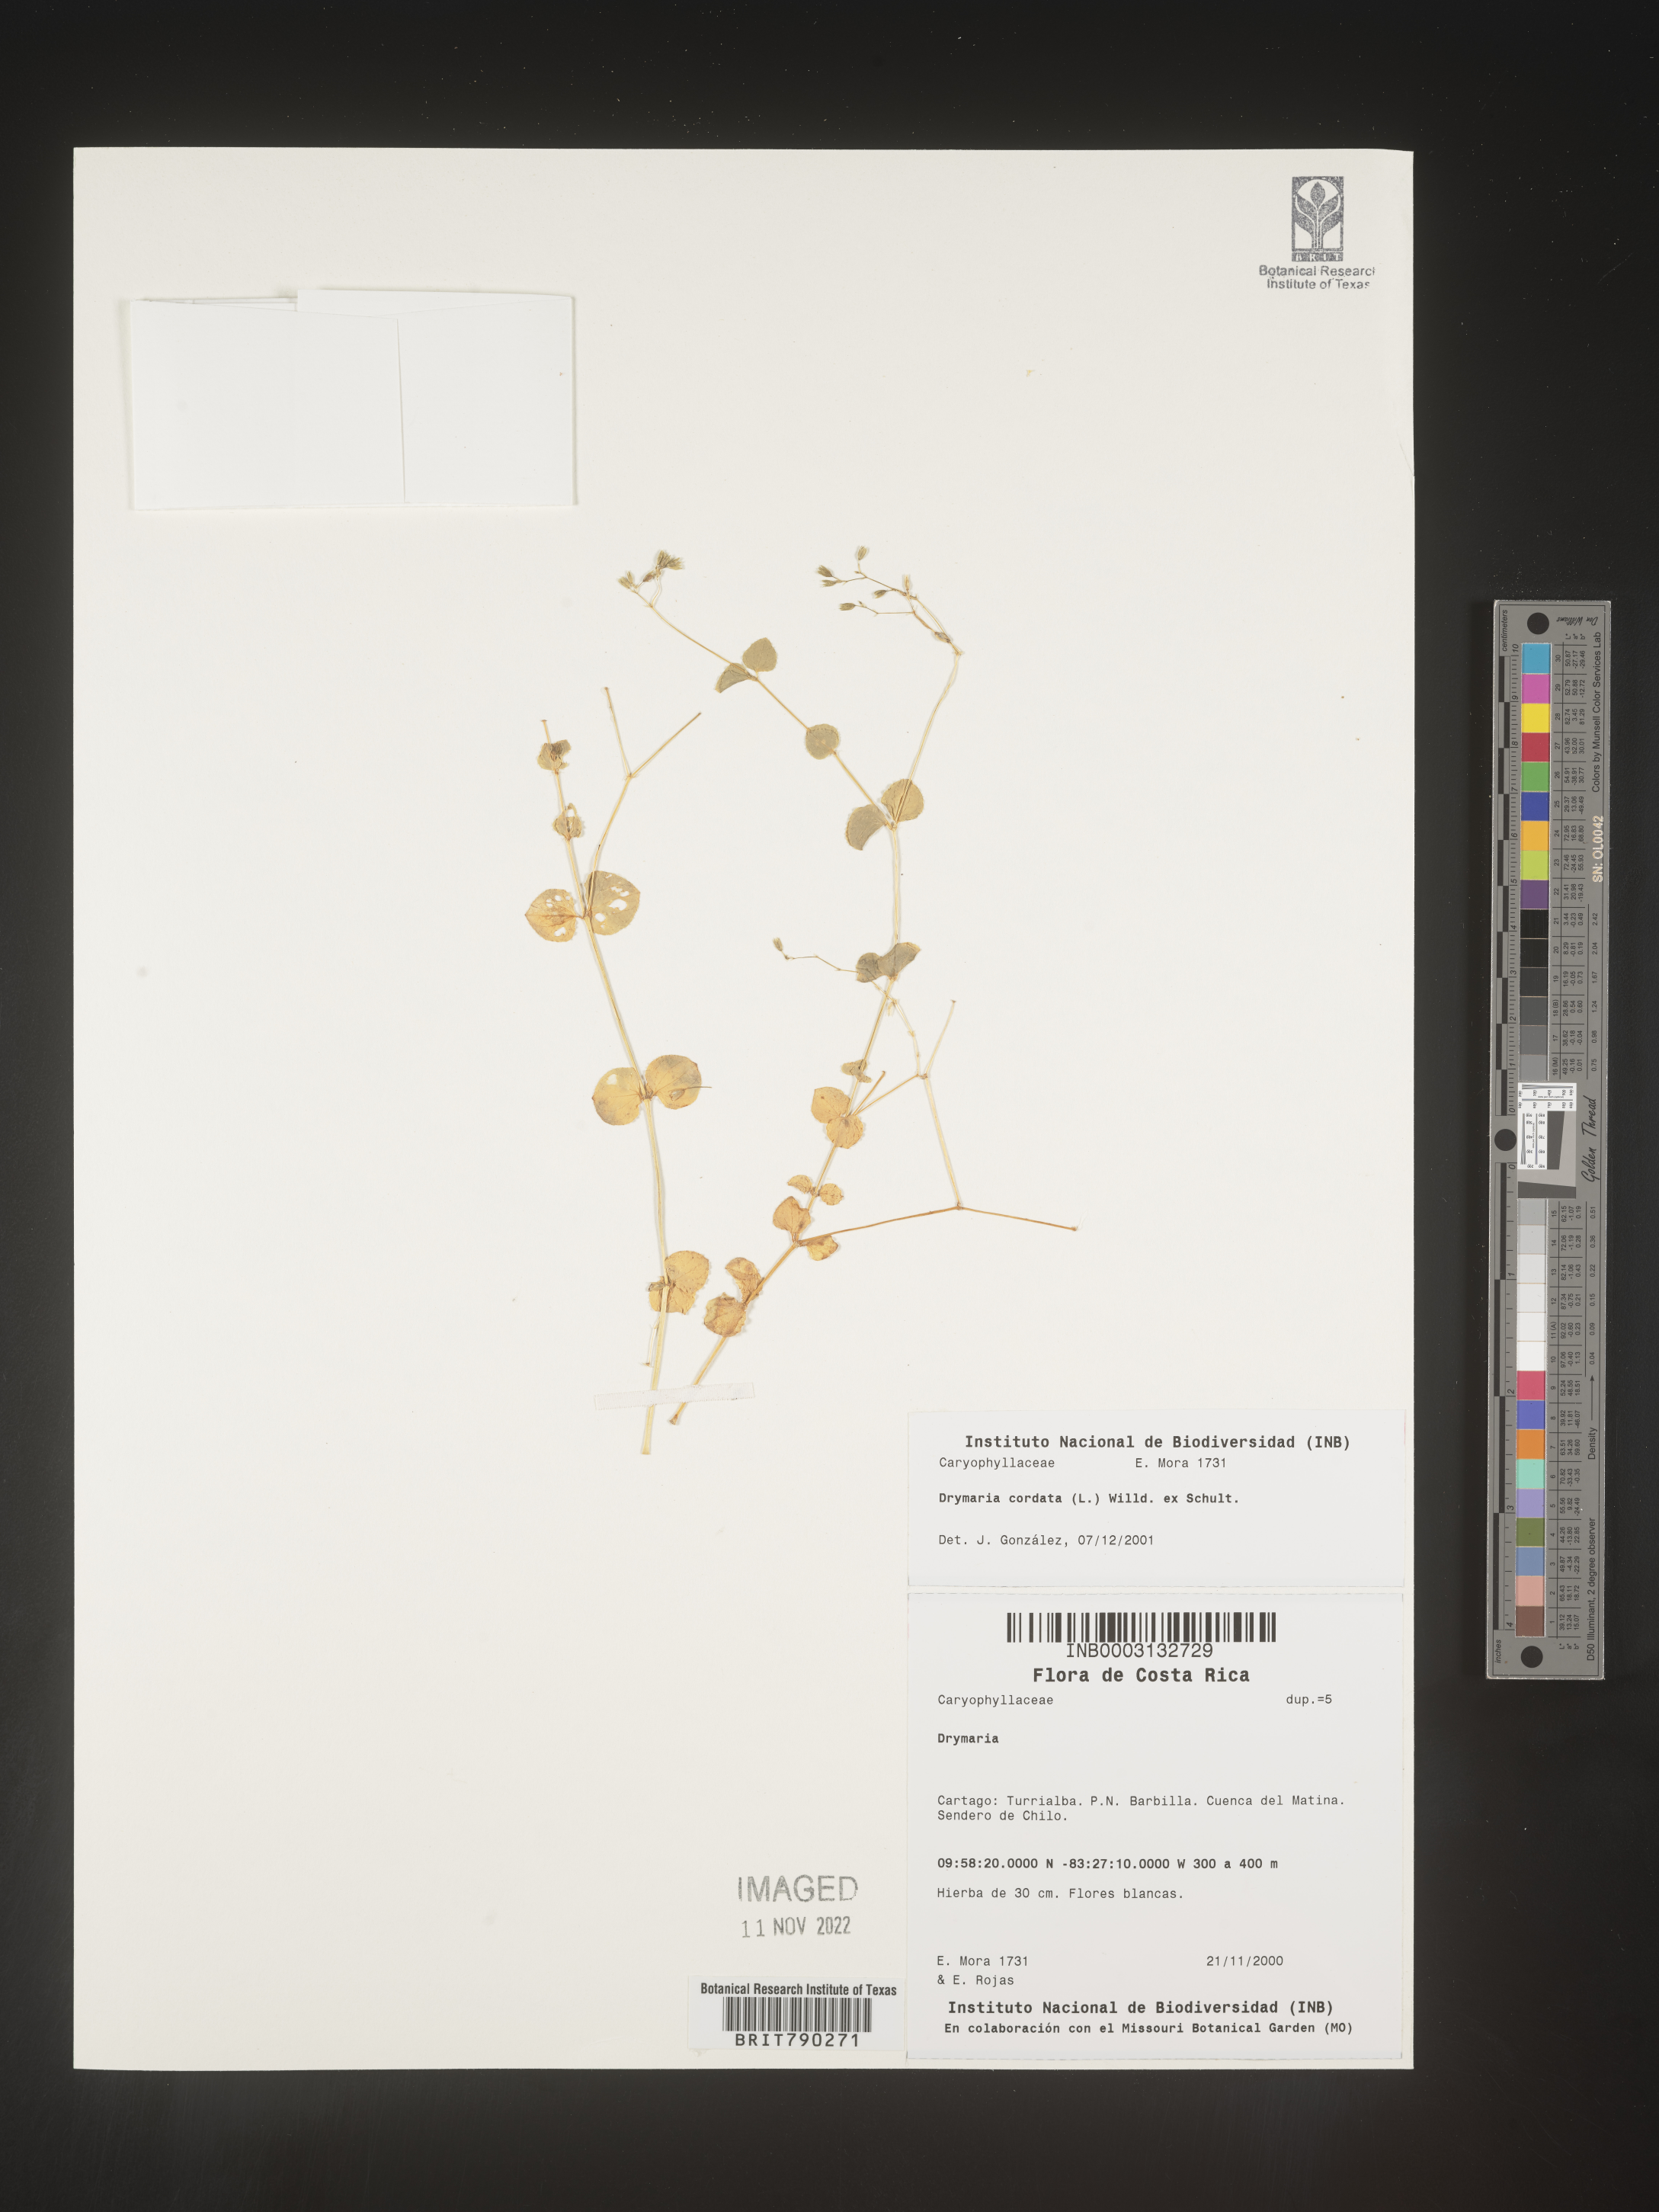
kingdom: Plantae
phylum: Tracheophyta
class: Magnoliopsida
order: Caryophyllales
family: Caryophyllaceae
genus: Drymaria
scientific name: Drymaria
